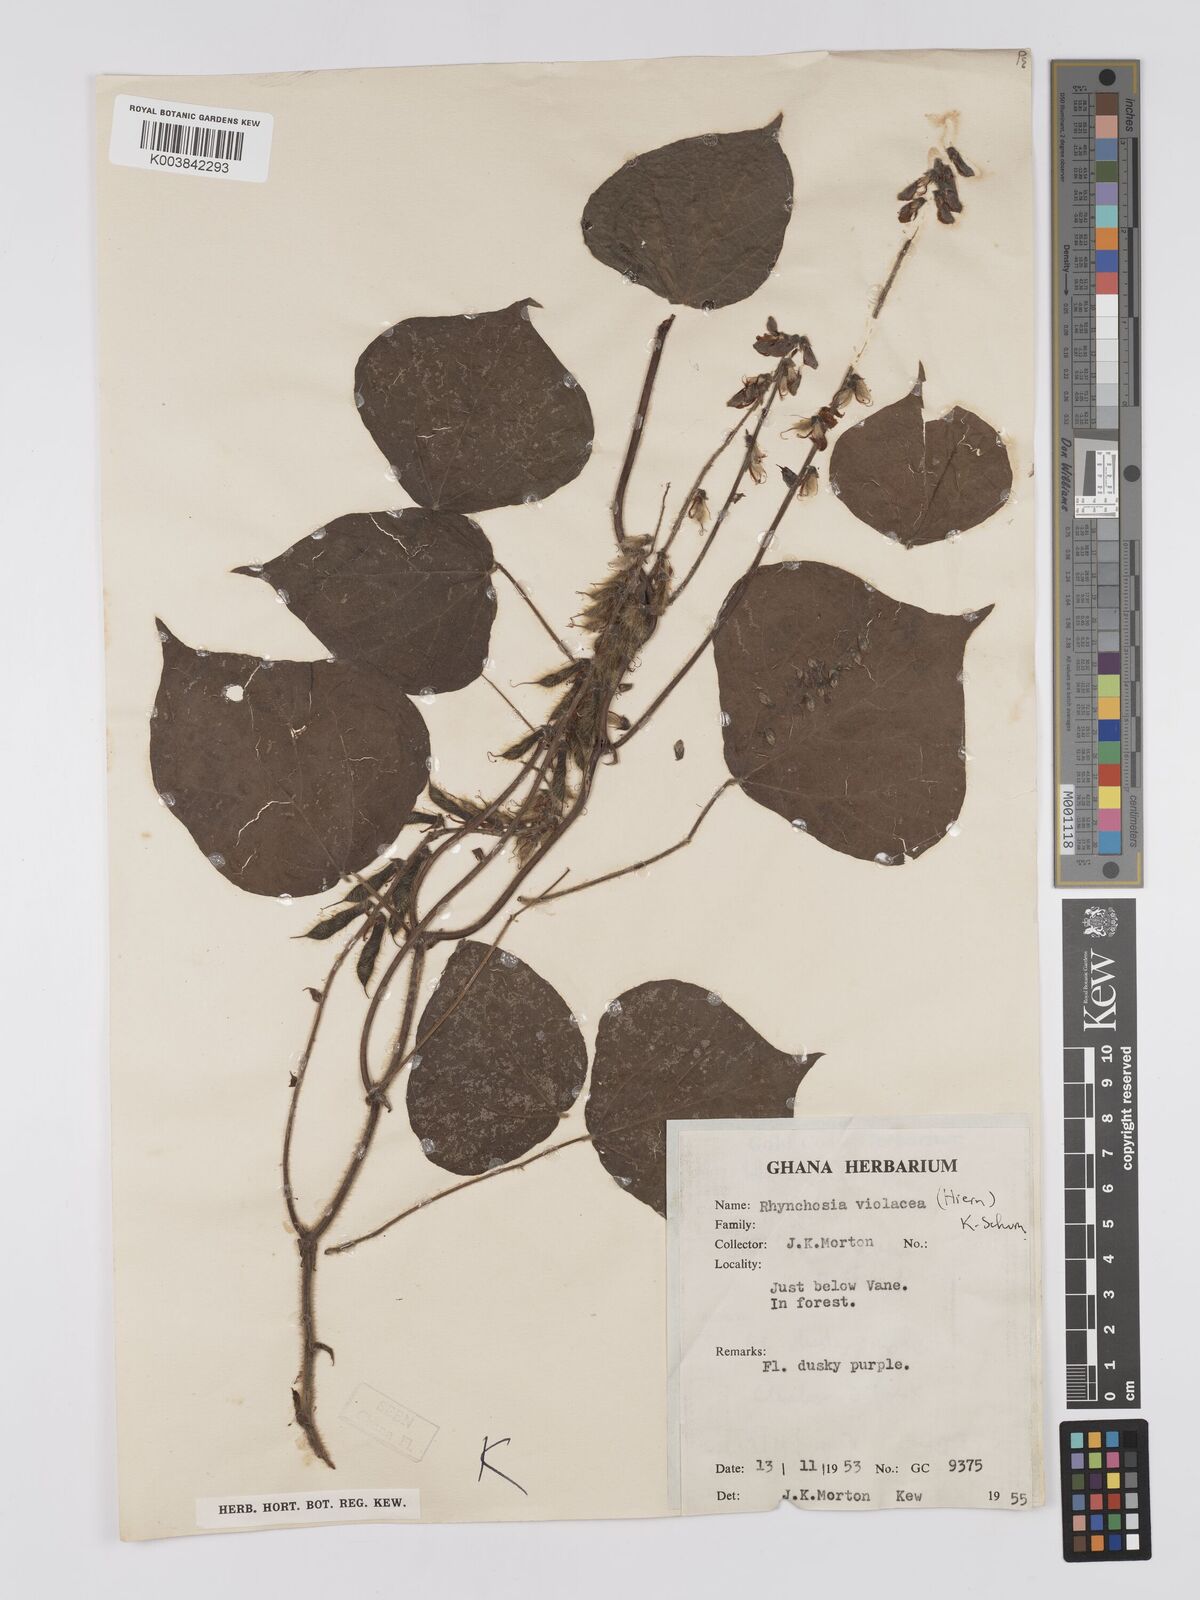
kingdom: Plantae
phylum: Tracheophyta
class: Magnoliopsida
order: Fabales
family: Fabaceae
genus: Rhynchosia
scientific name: Rhynchosia viscosa
